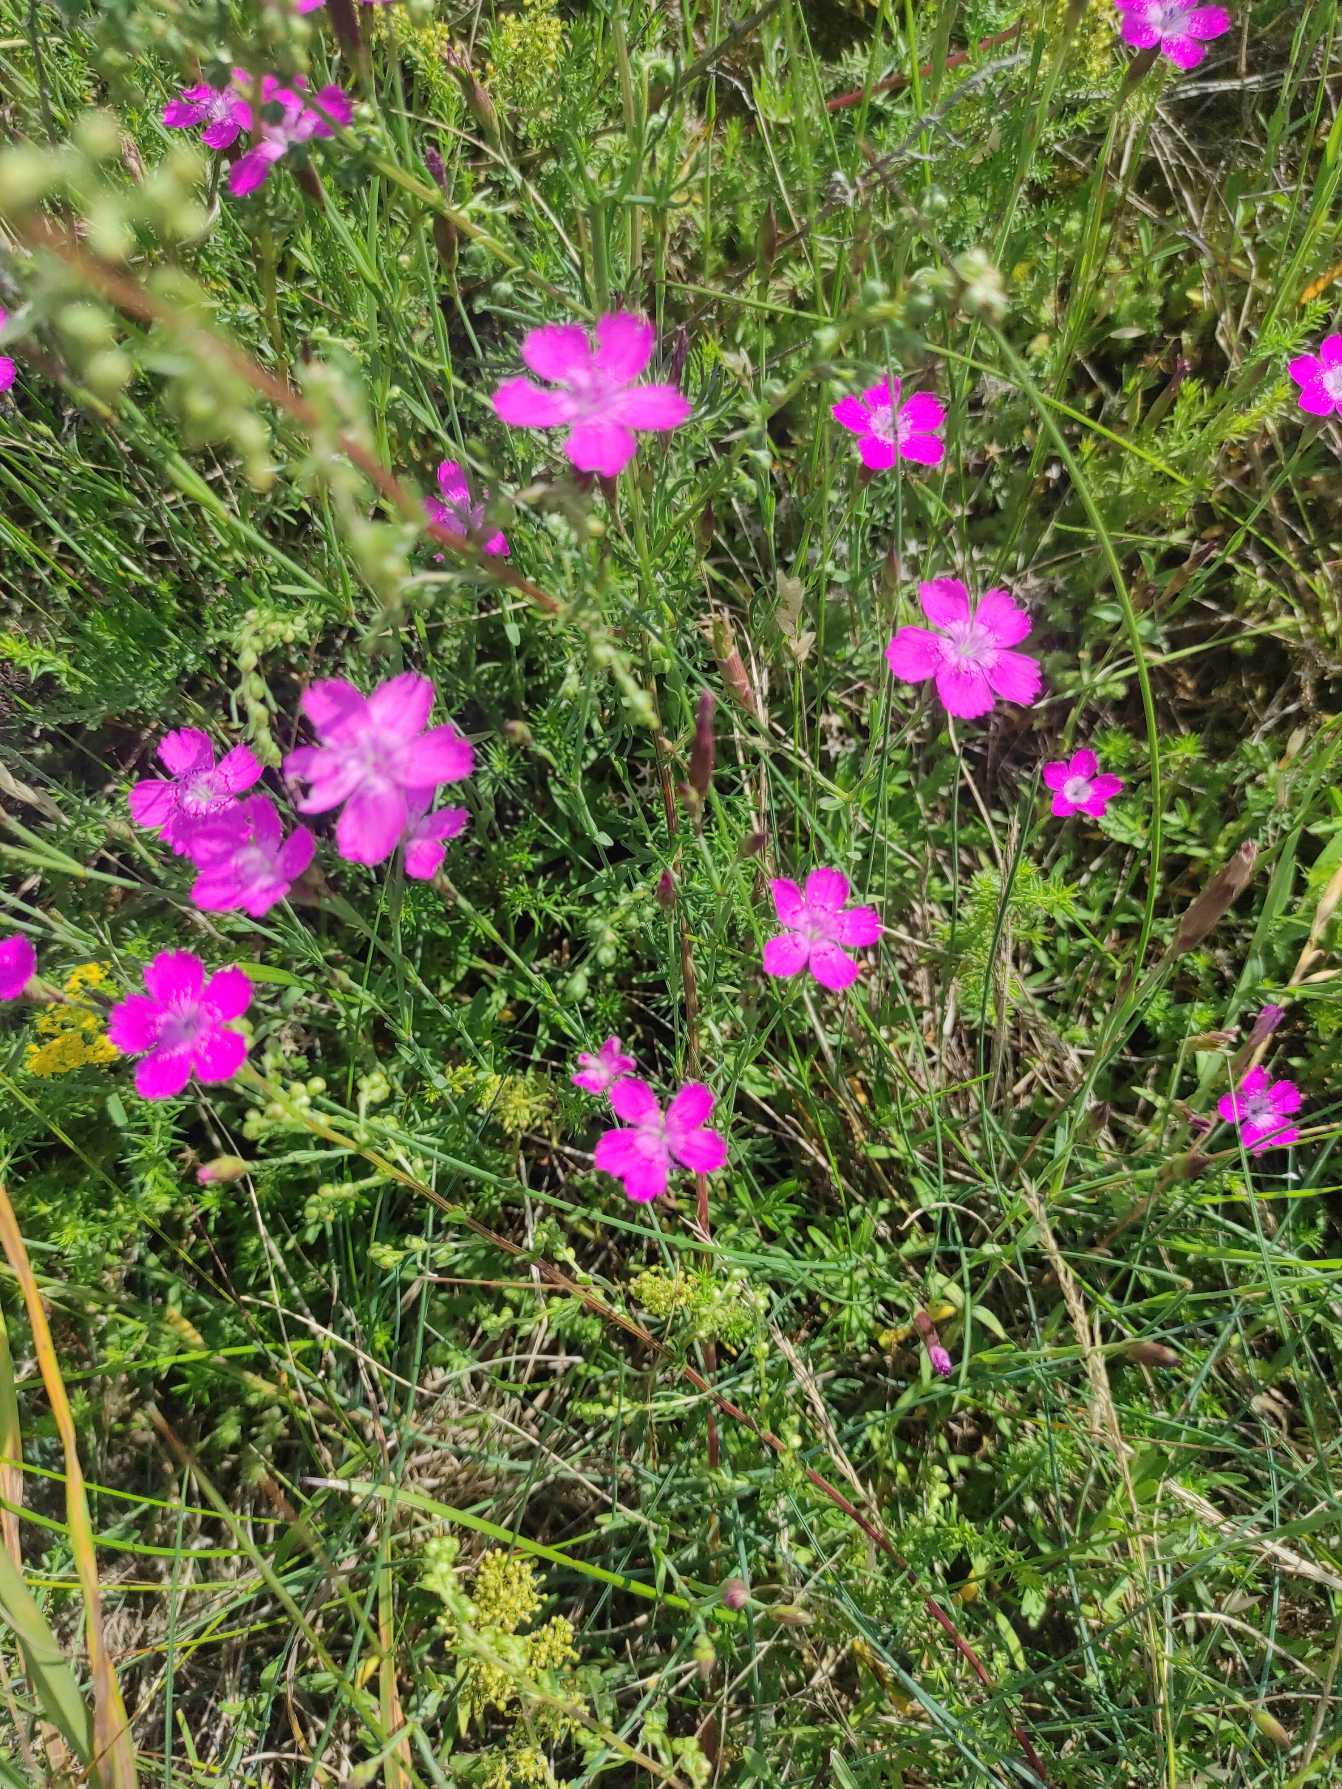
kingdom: Plantae
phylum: Tracheophyta
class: Magnoliopsida
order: Caryophyllales
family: Caryophyllaceae
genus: Dianthus
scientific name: Dianthus deltoides
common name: Bakke-nellike
